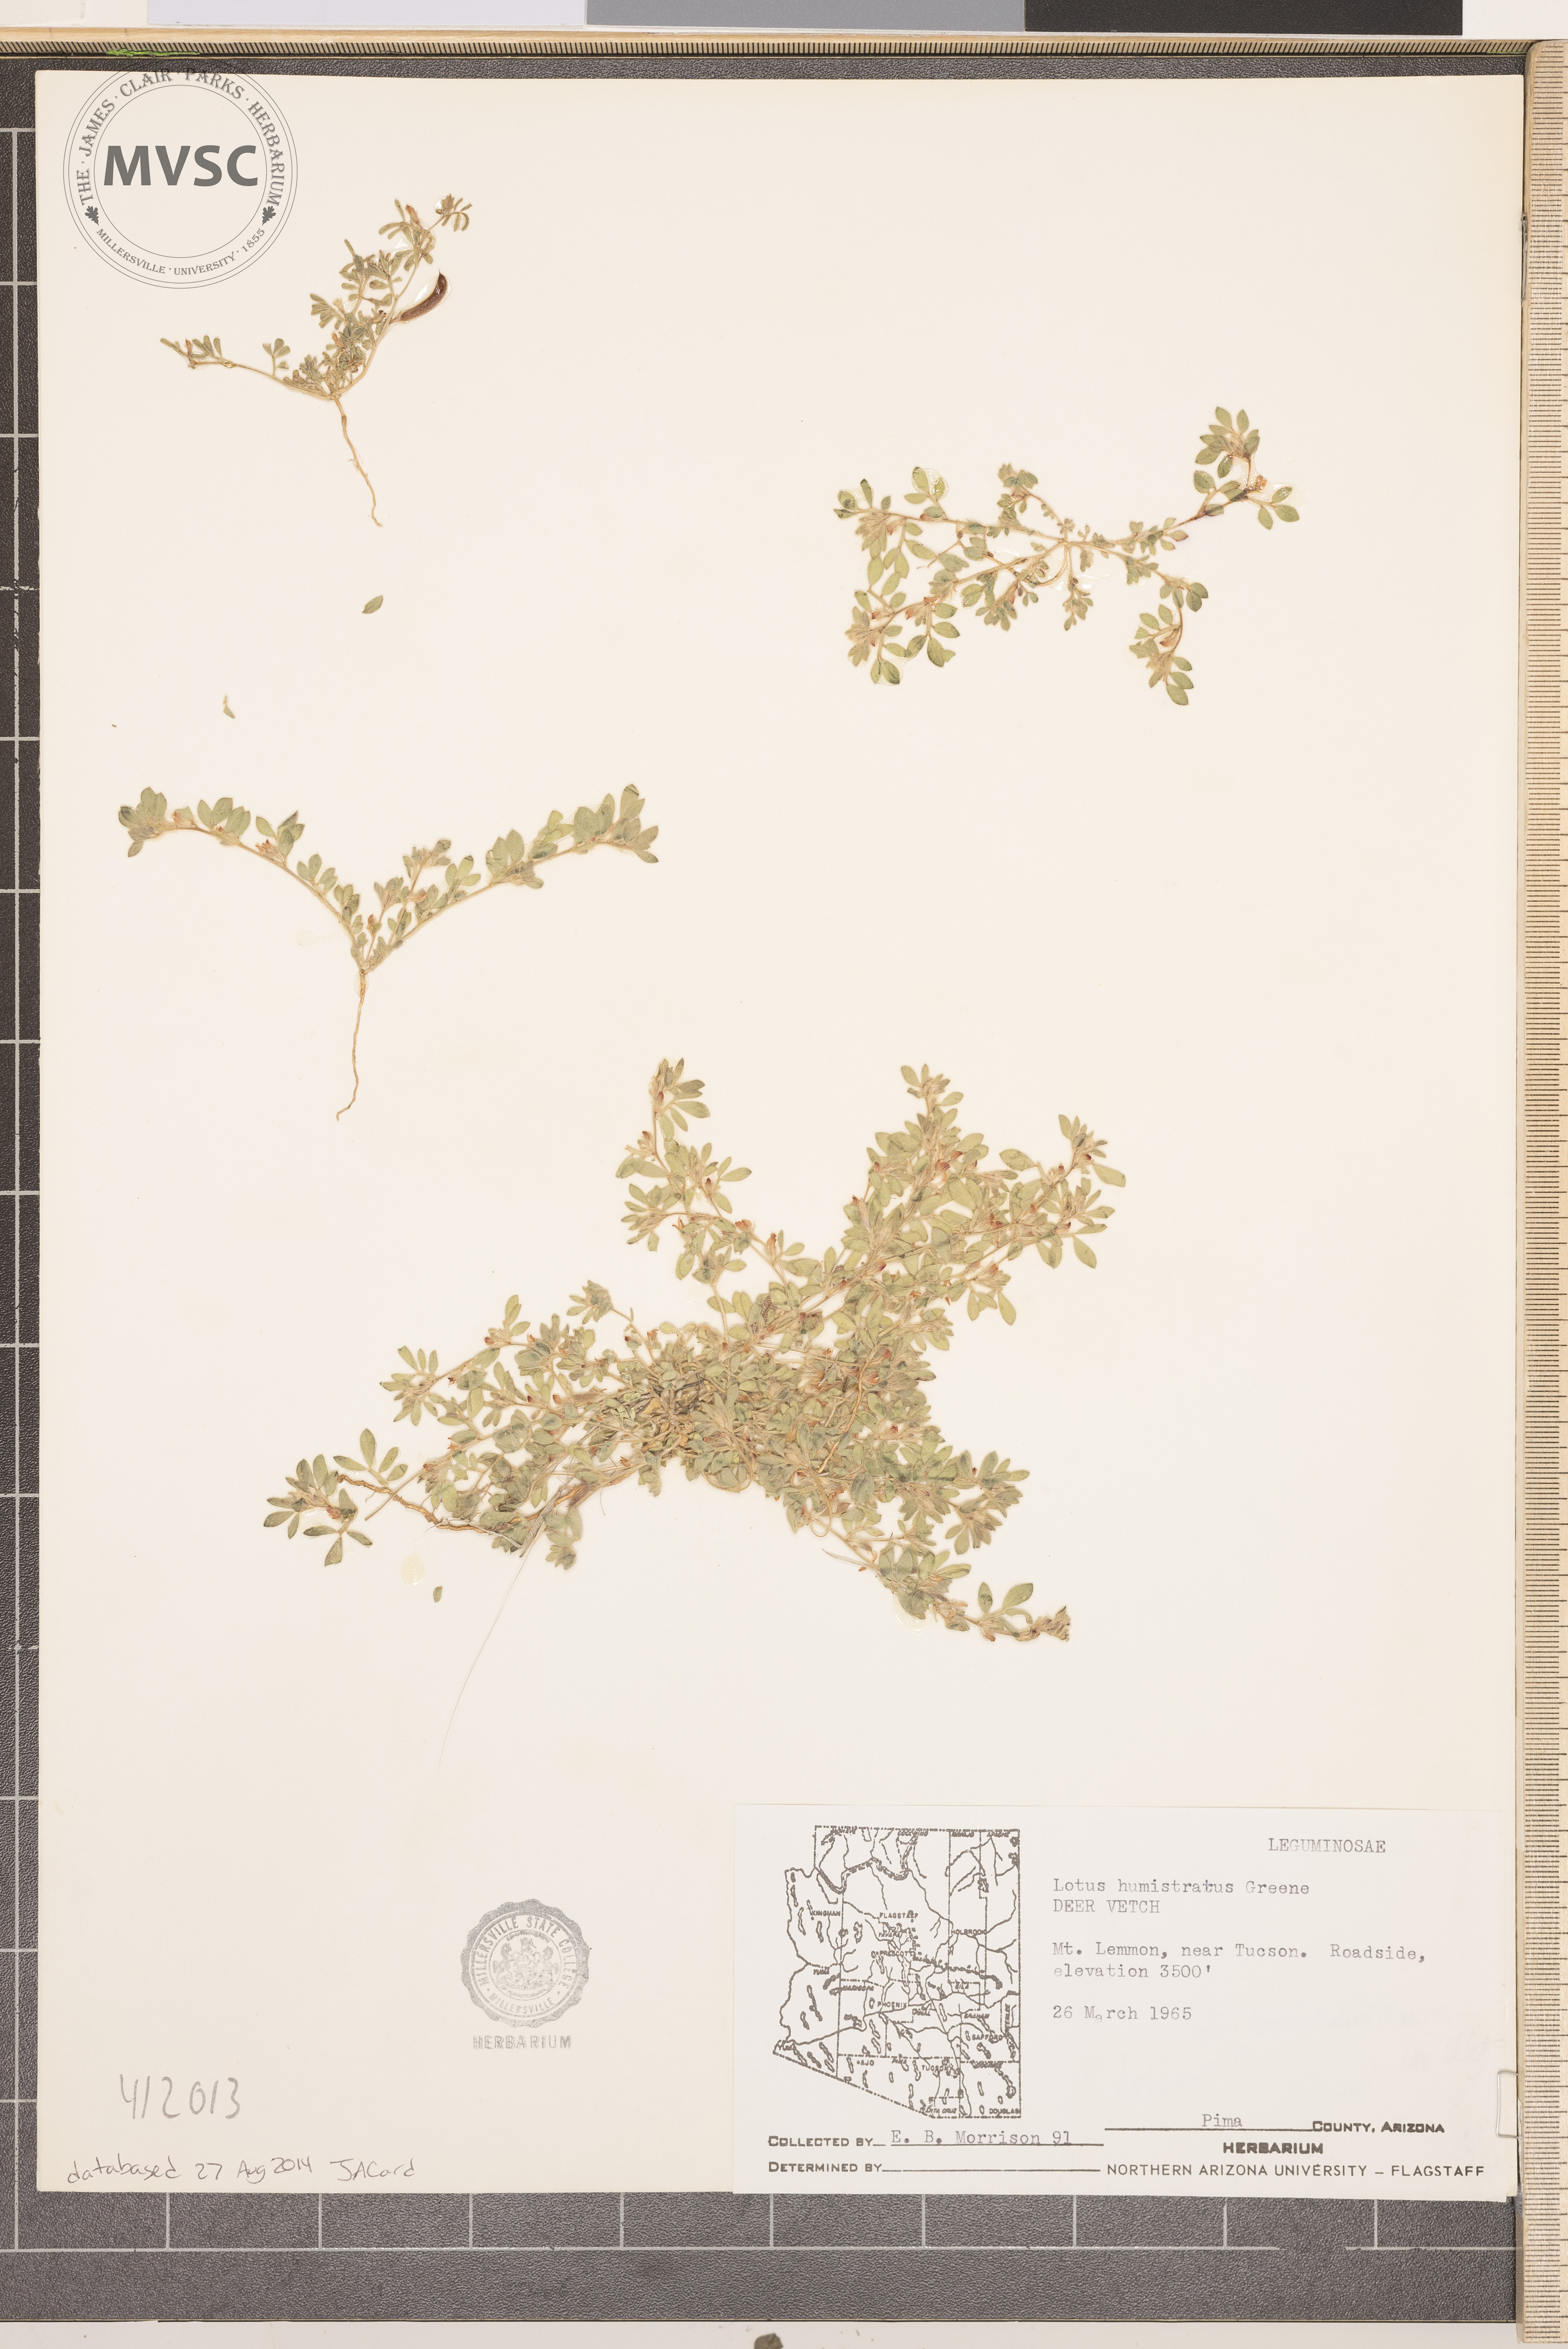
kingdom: Plantae
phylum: Tracheophyta
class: Magnoliopsida
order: Fabales
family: Fabaceae
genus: Acmispon
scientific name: Acmispon brachycarpus
